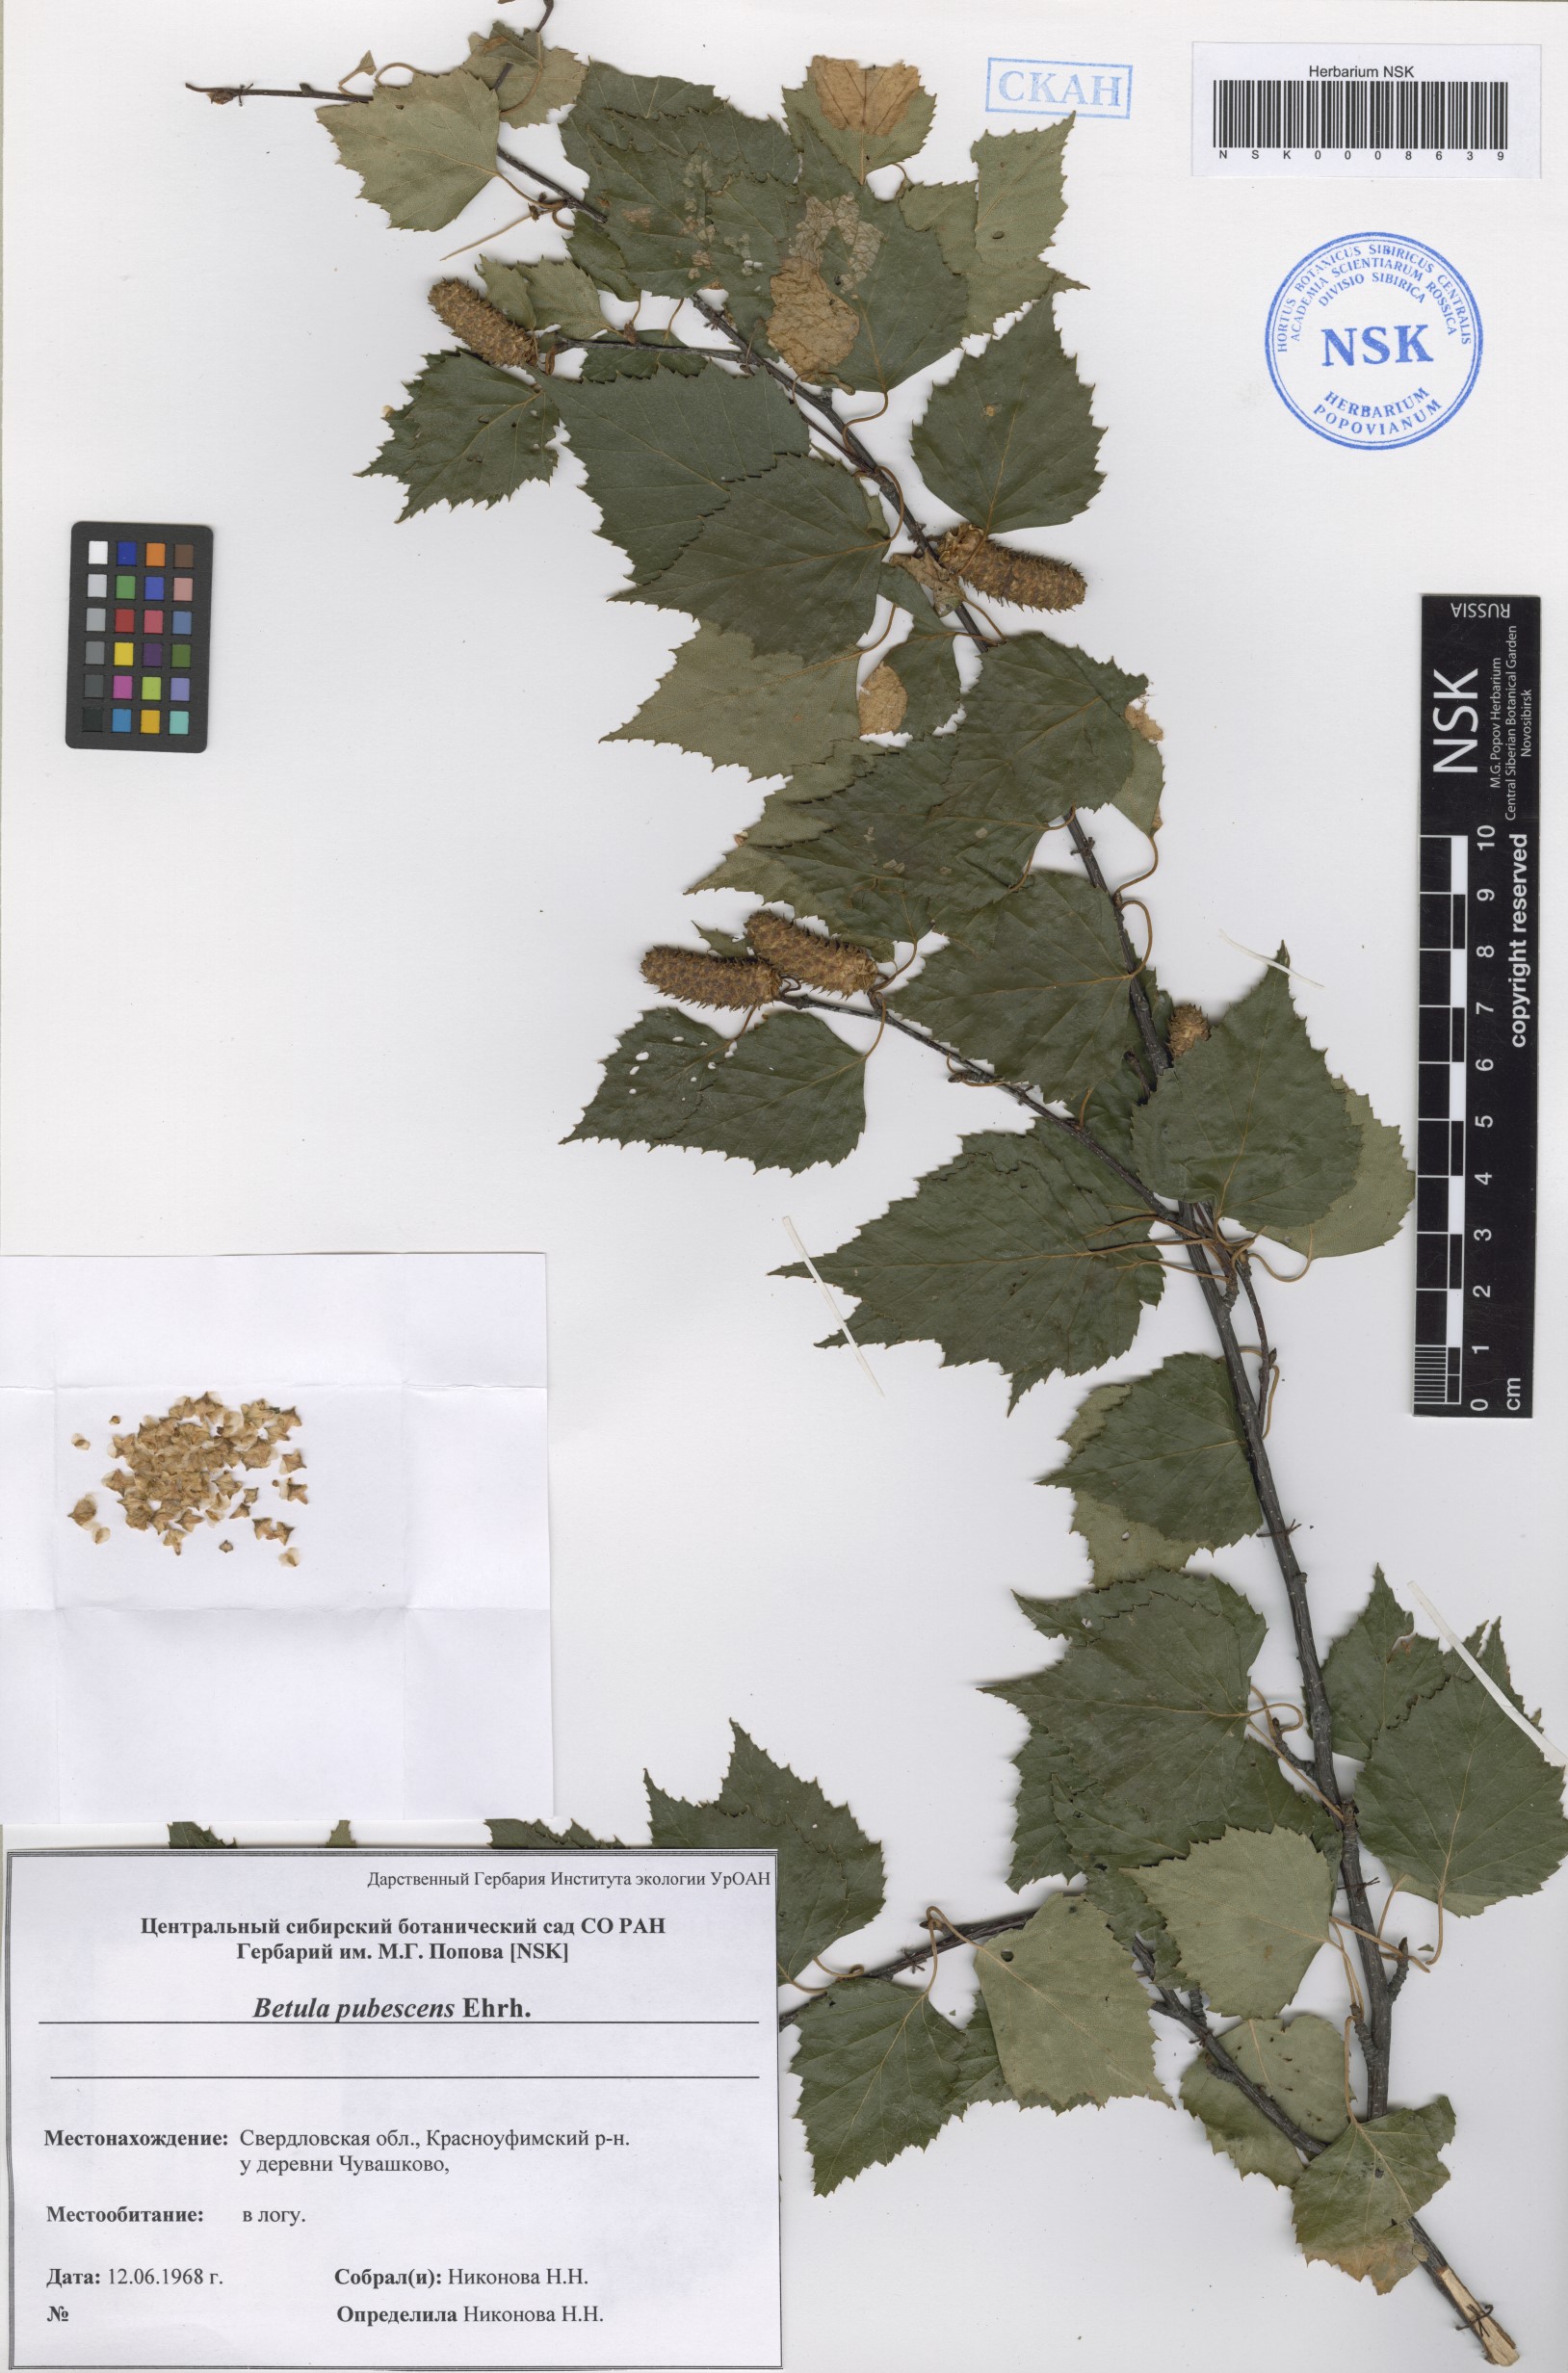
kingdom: Plantae
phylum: Tracheophyta
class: Magnoliopsida
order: Fagales
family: Betulaceae
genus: Betula
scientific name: Betula pubescens
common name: Downy birch
